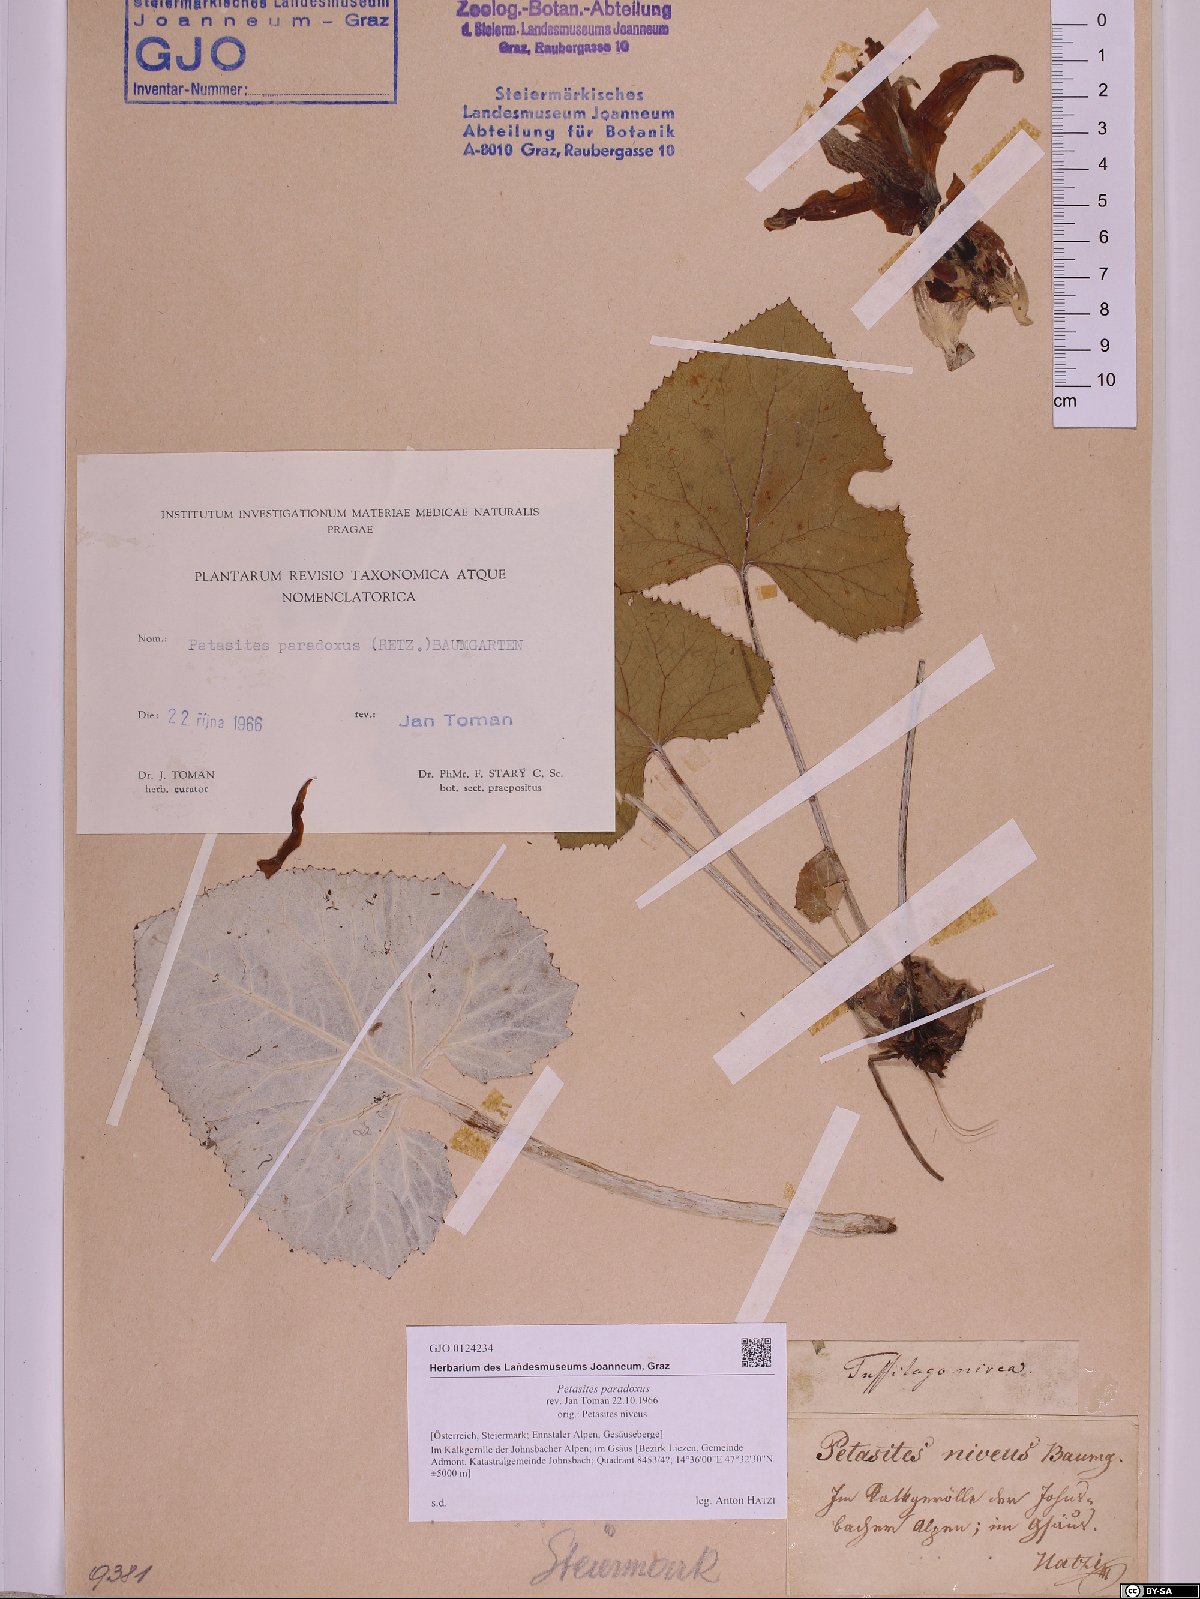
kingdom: Plantae
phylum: Tracheophyta
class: Magnoliopsida
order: Asterales
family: Asteraceae
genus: Petasites
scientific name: Petasites paradoxus
